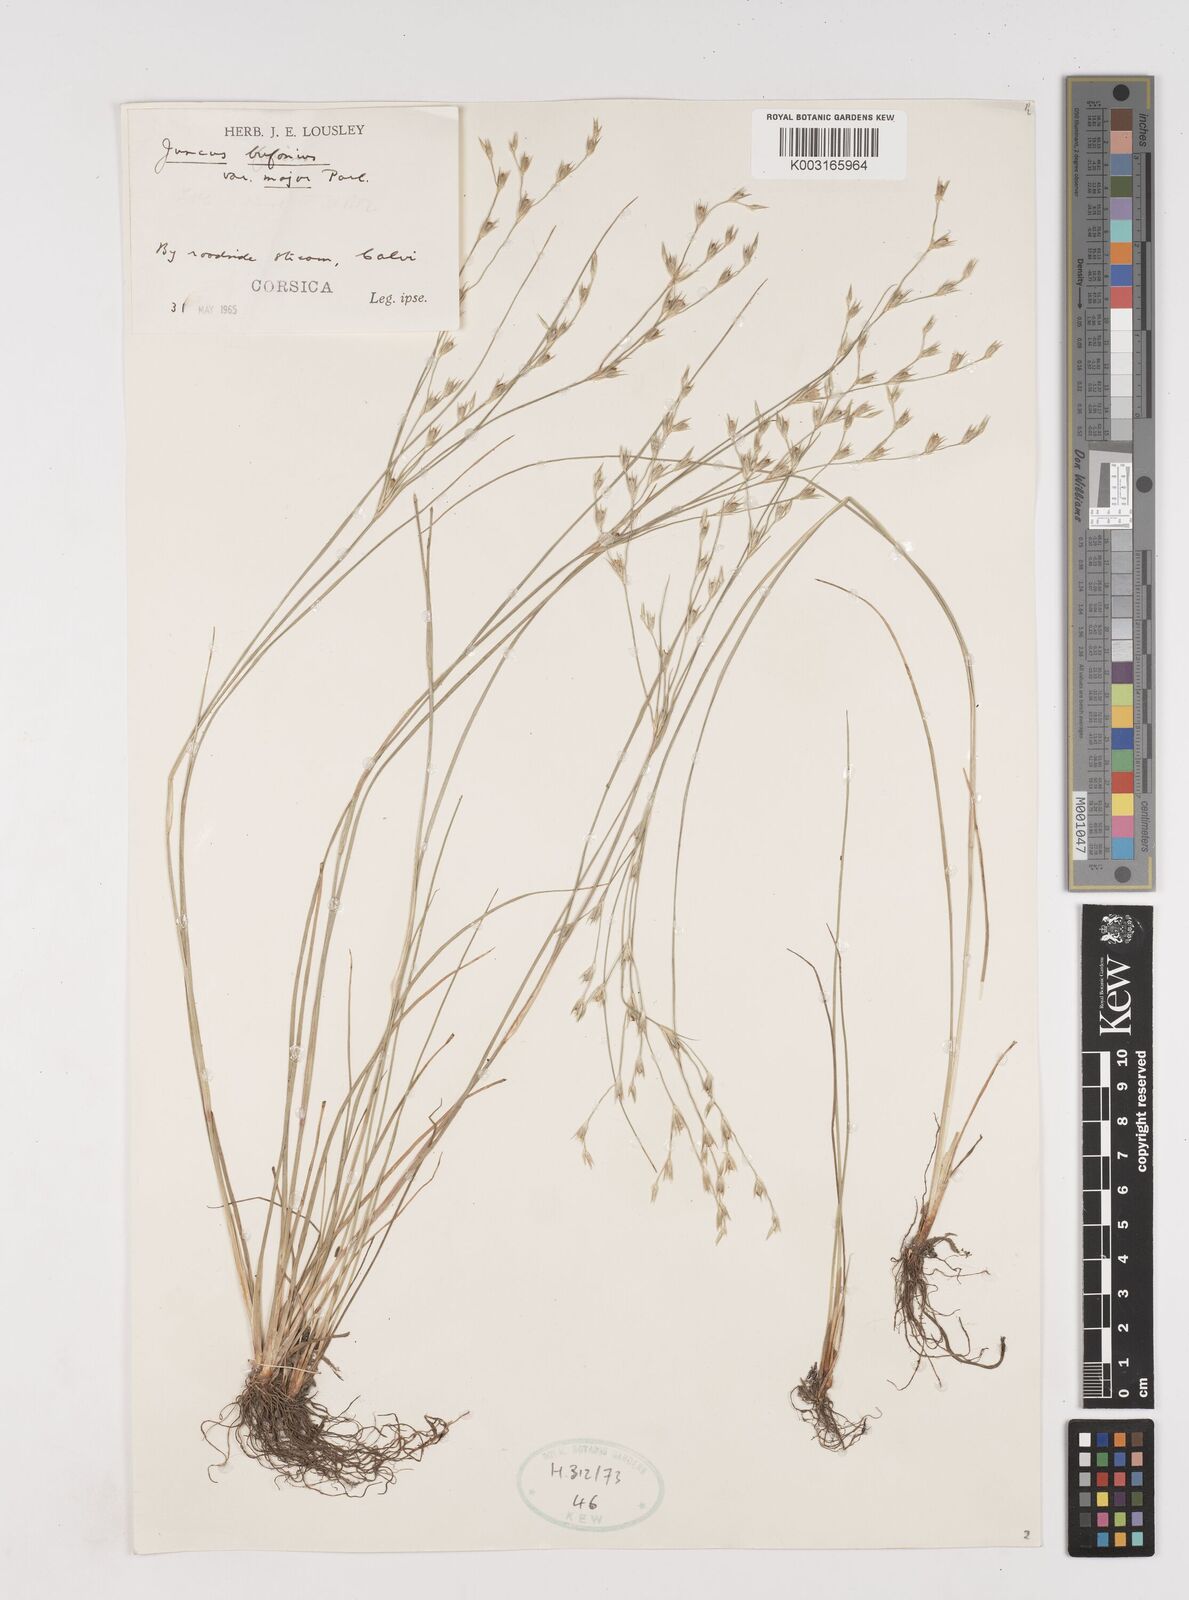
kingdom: Plantae
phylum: Tracheophyta
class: Liliopsida
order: Poales
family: Juncaceae
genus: Juncus
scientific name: Juncus bufonius
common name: Toad rush
